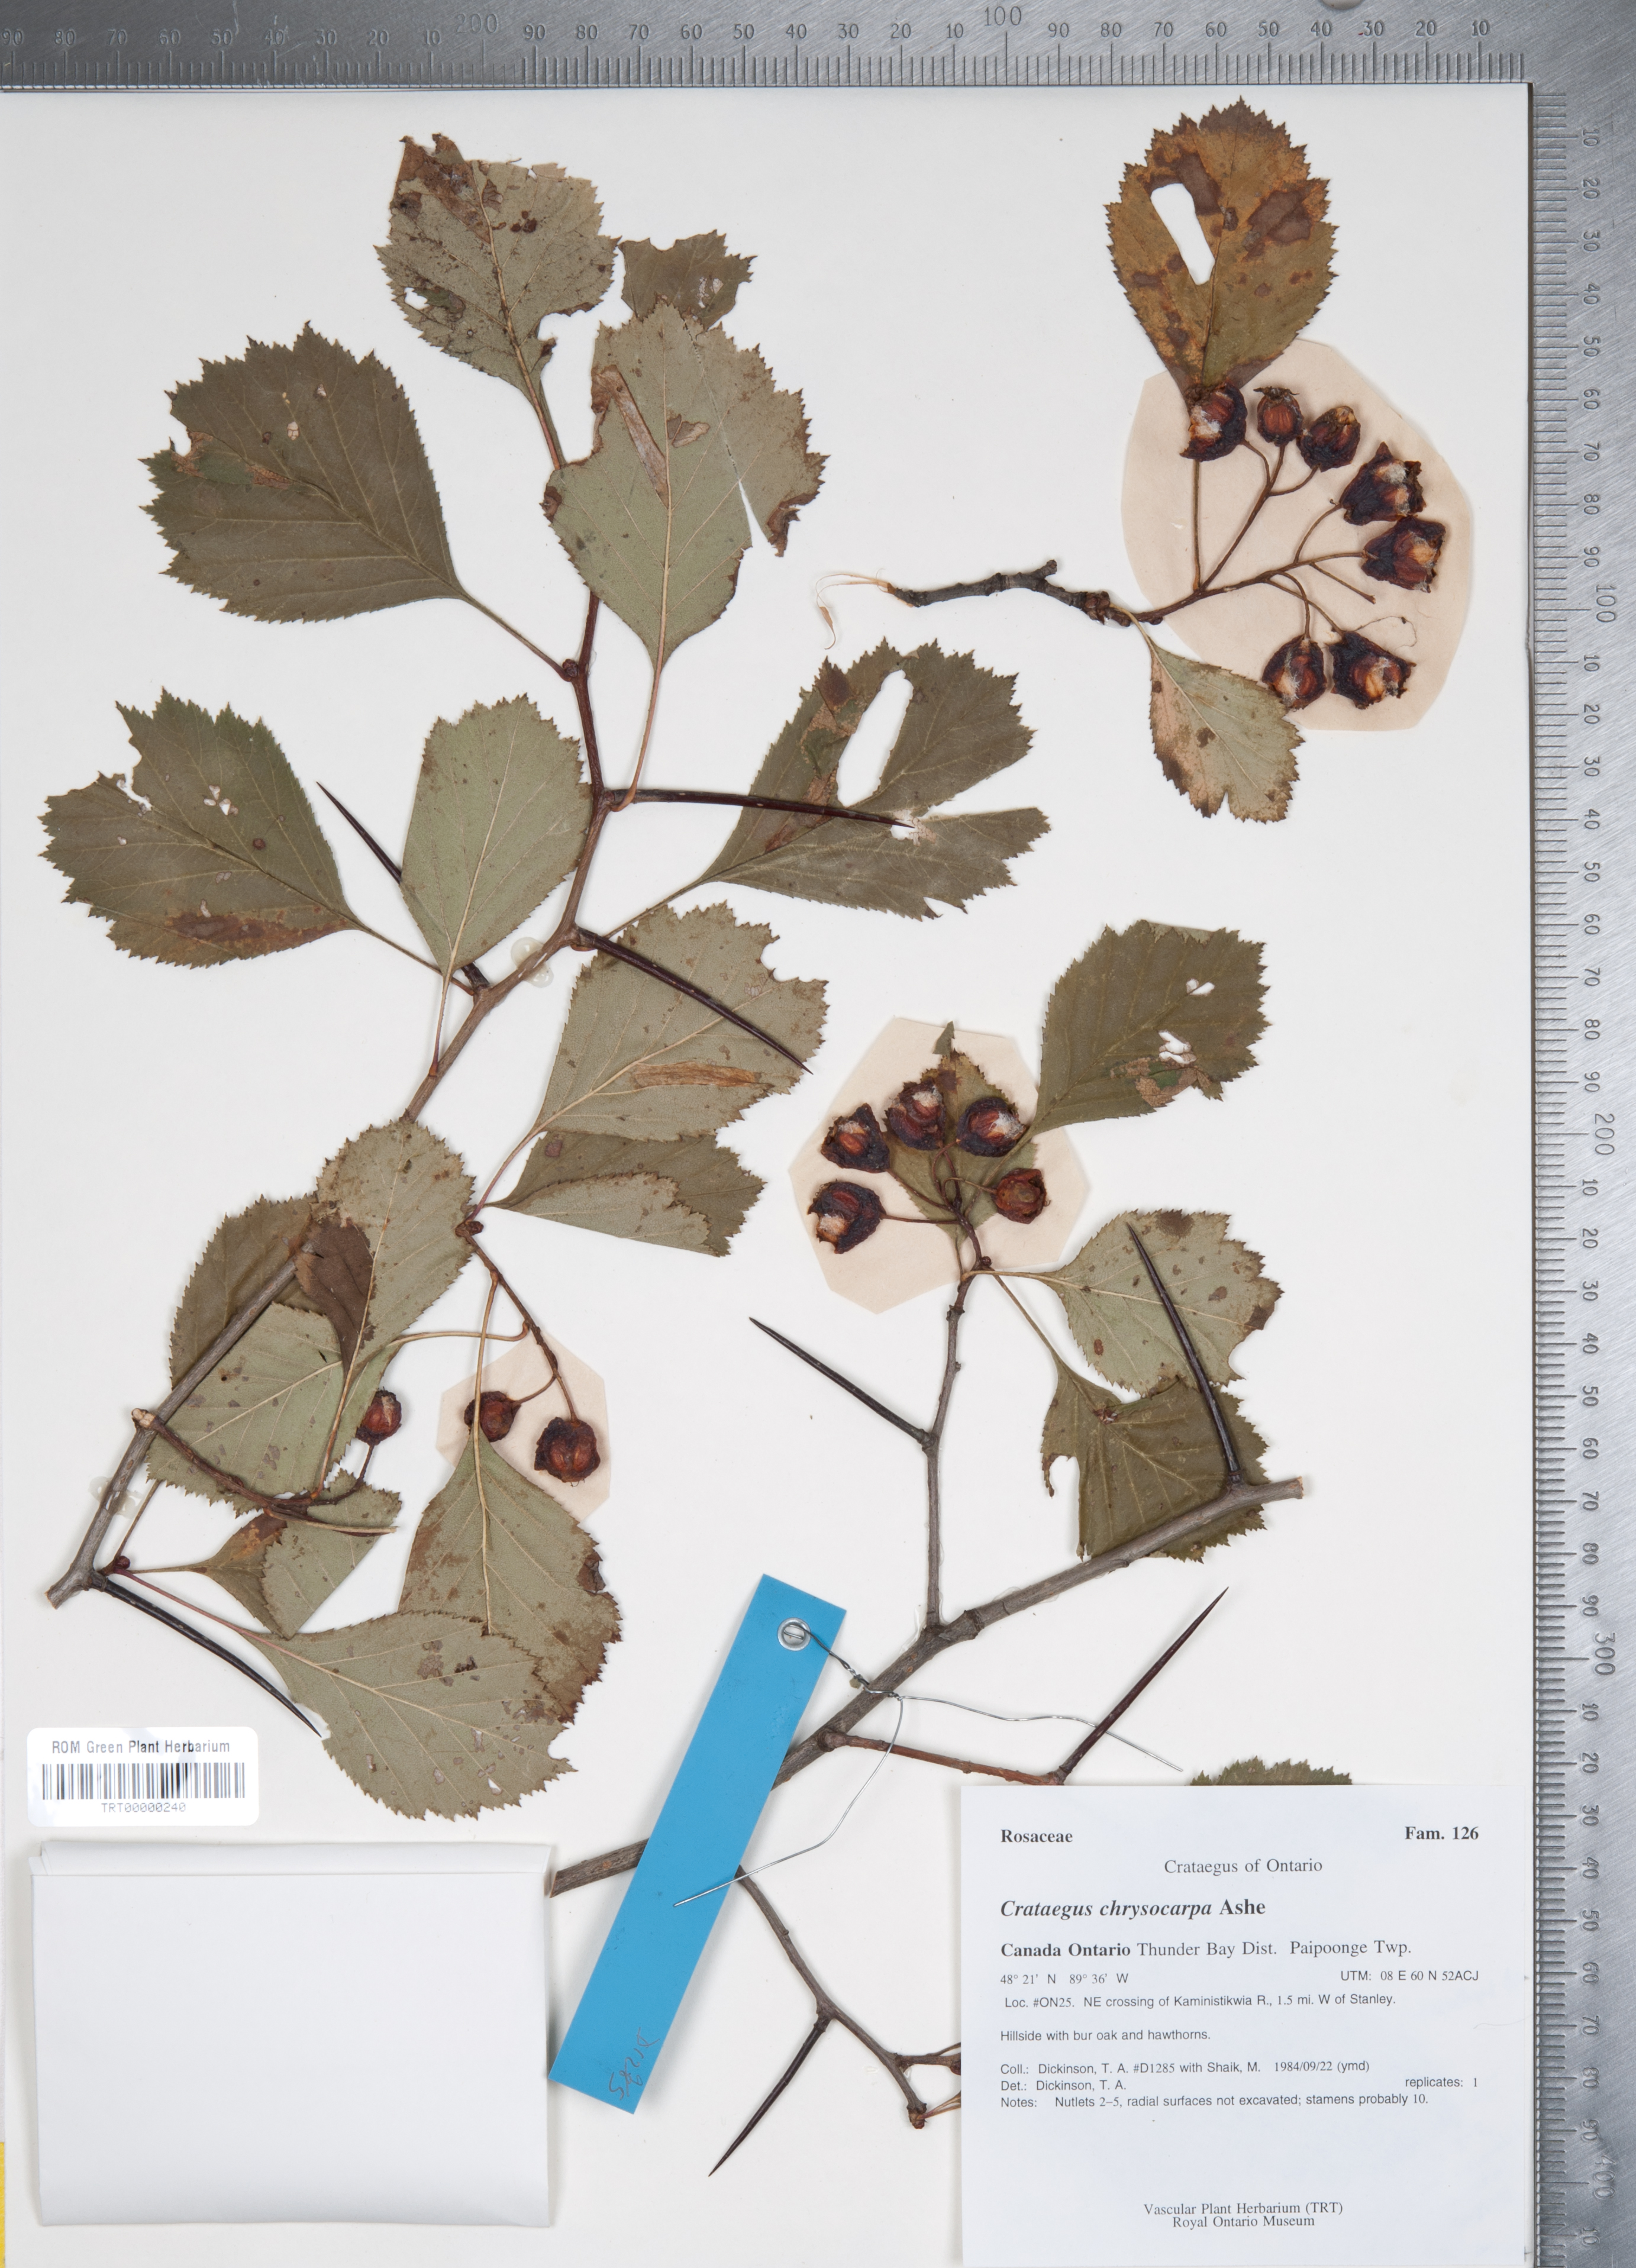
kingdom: Plantae
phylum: Tracheophyta
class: Magnoliopsida
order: Rosales
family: Rosaceae
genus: Crataegus
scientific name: Crataegus chrysocarpa
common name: Fire-berry hawthorn
